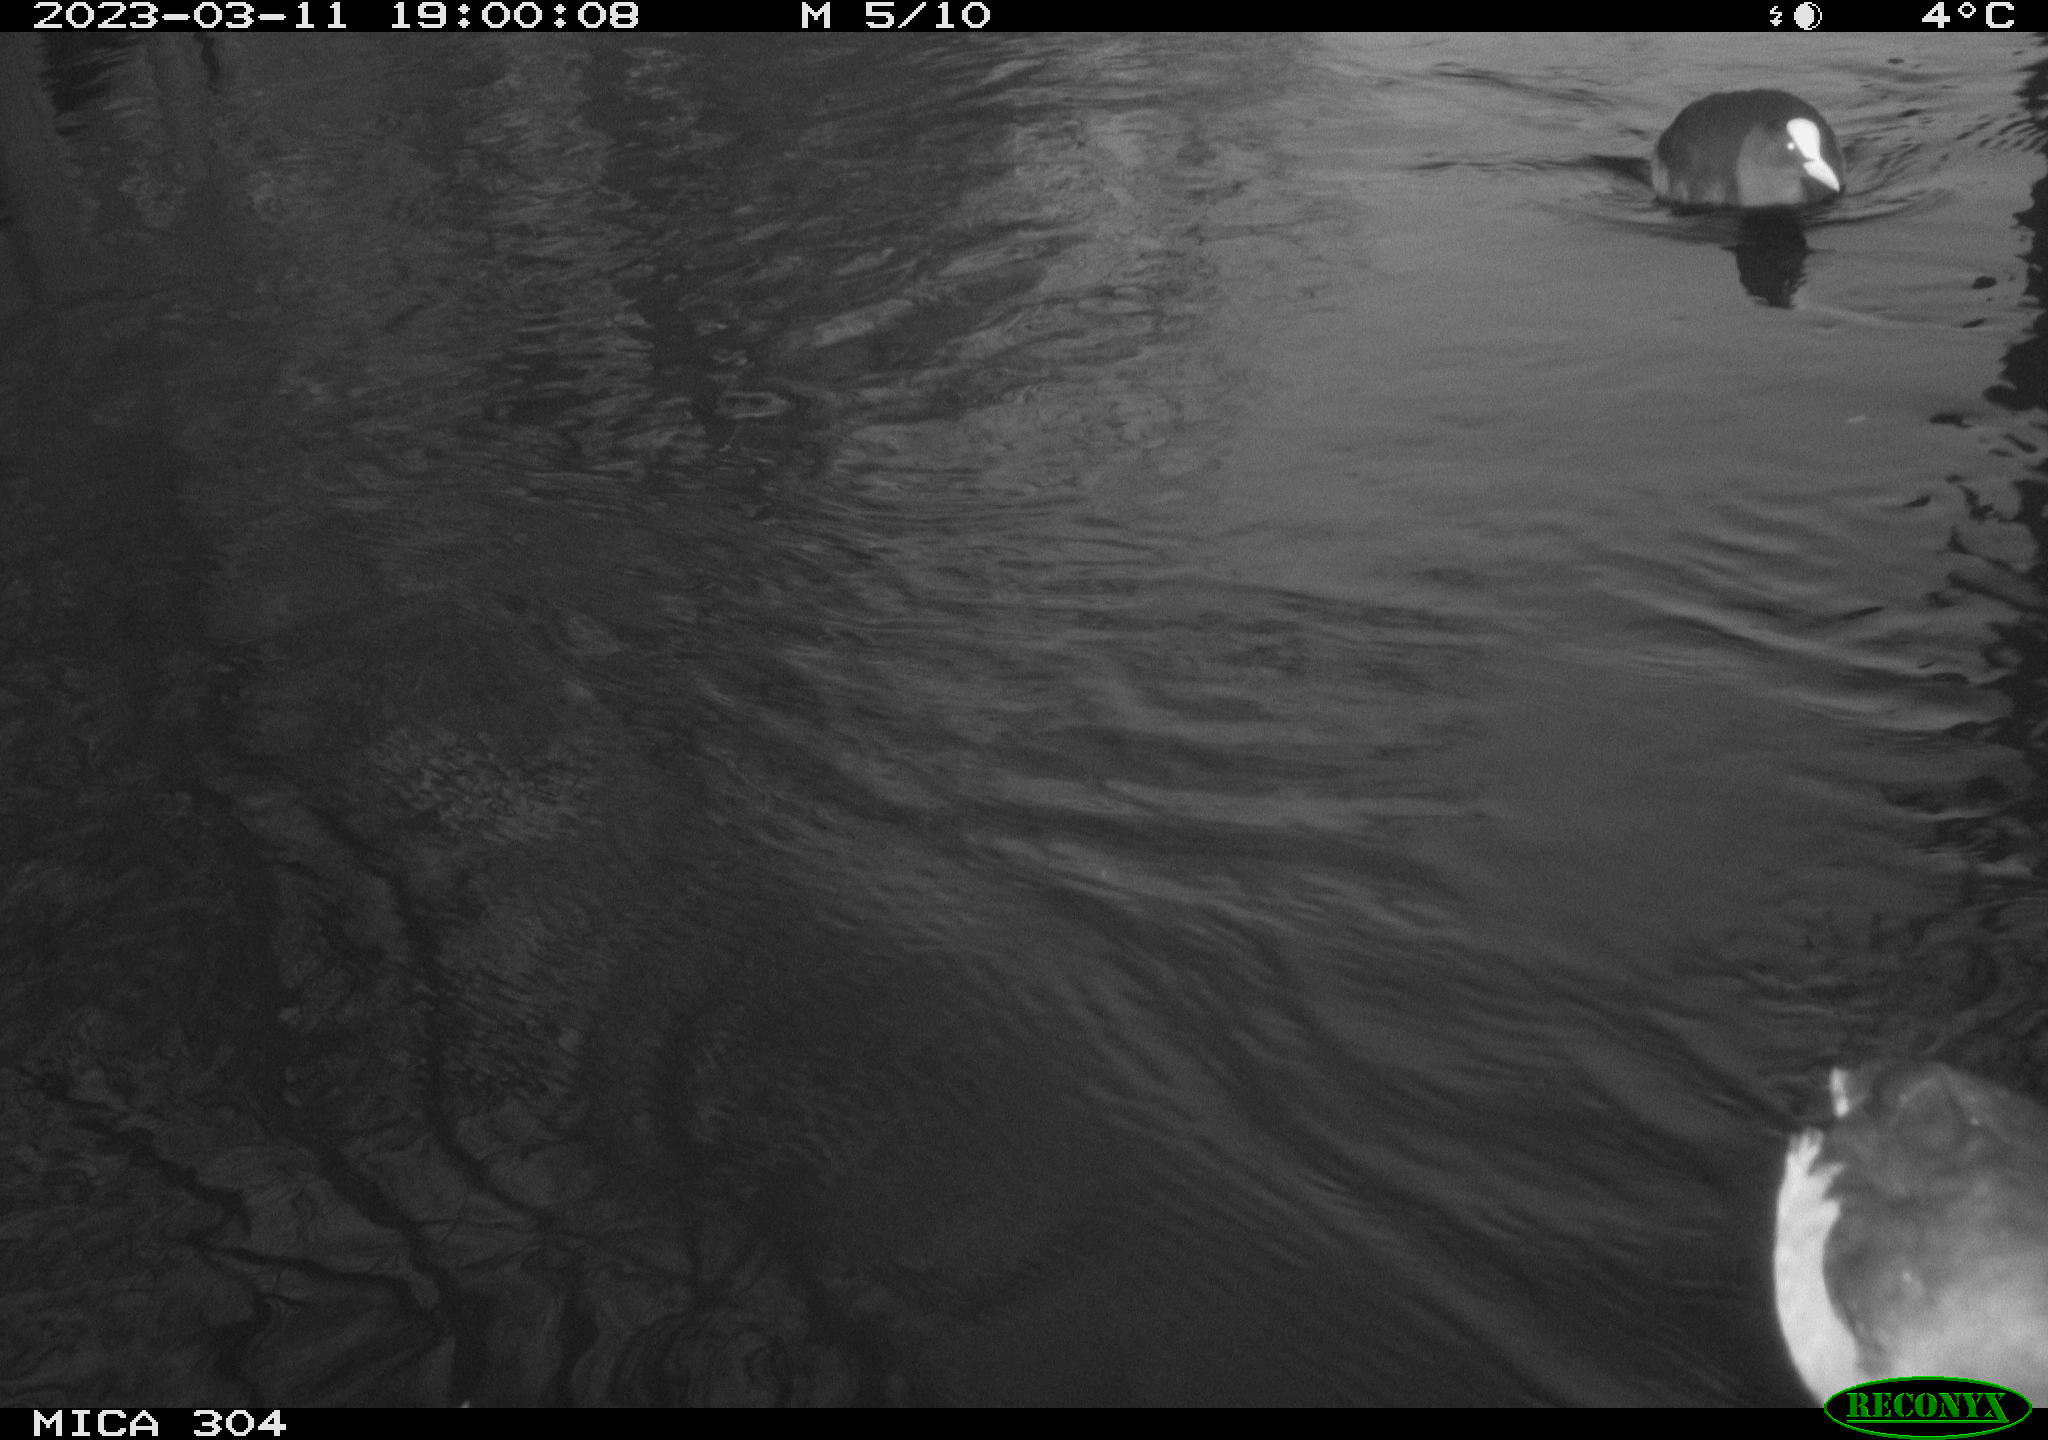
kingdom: Animalia
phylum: Chordata
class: Aves
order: Pelecaniformes
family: Ardeidae
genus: Ardea
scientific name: Ardea cinerea
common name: Grey heron
